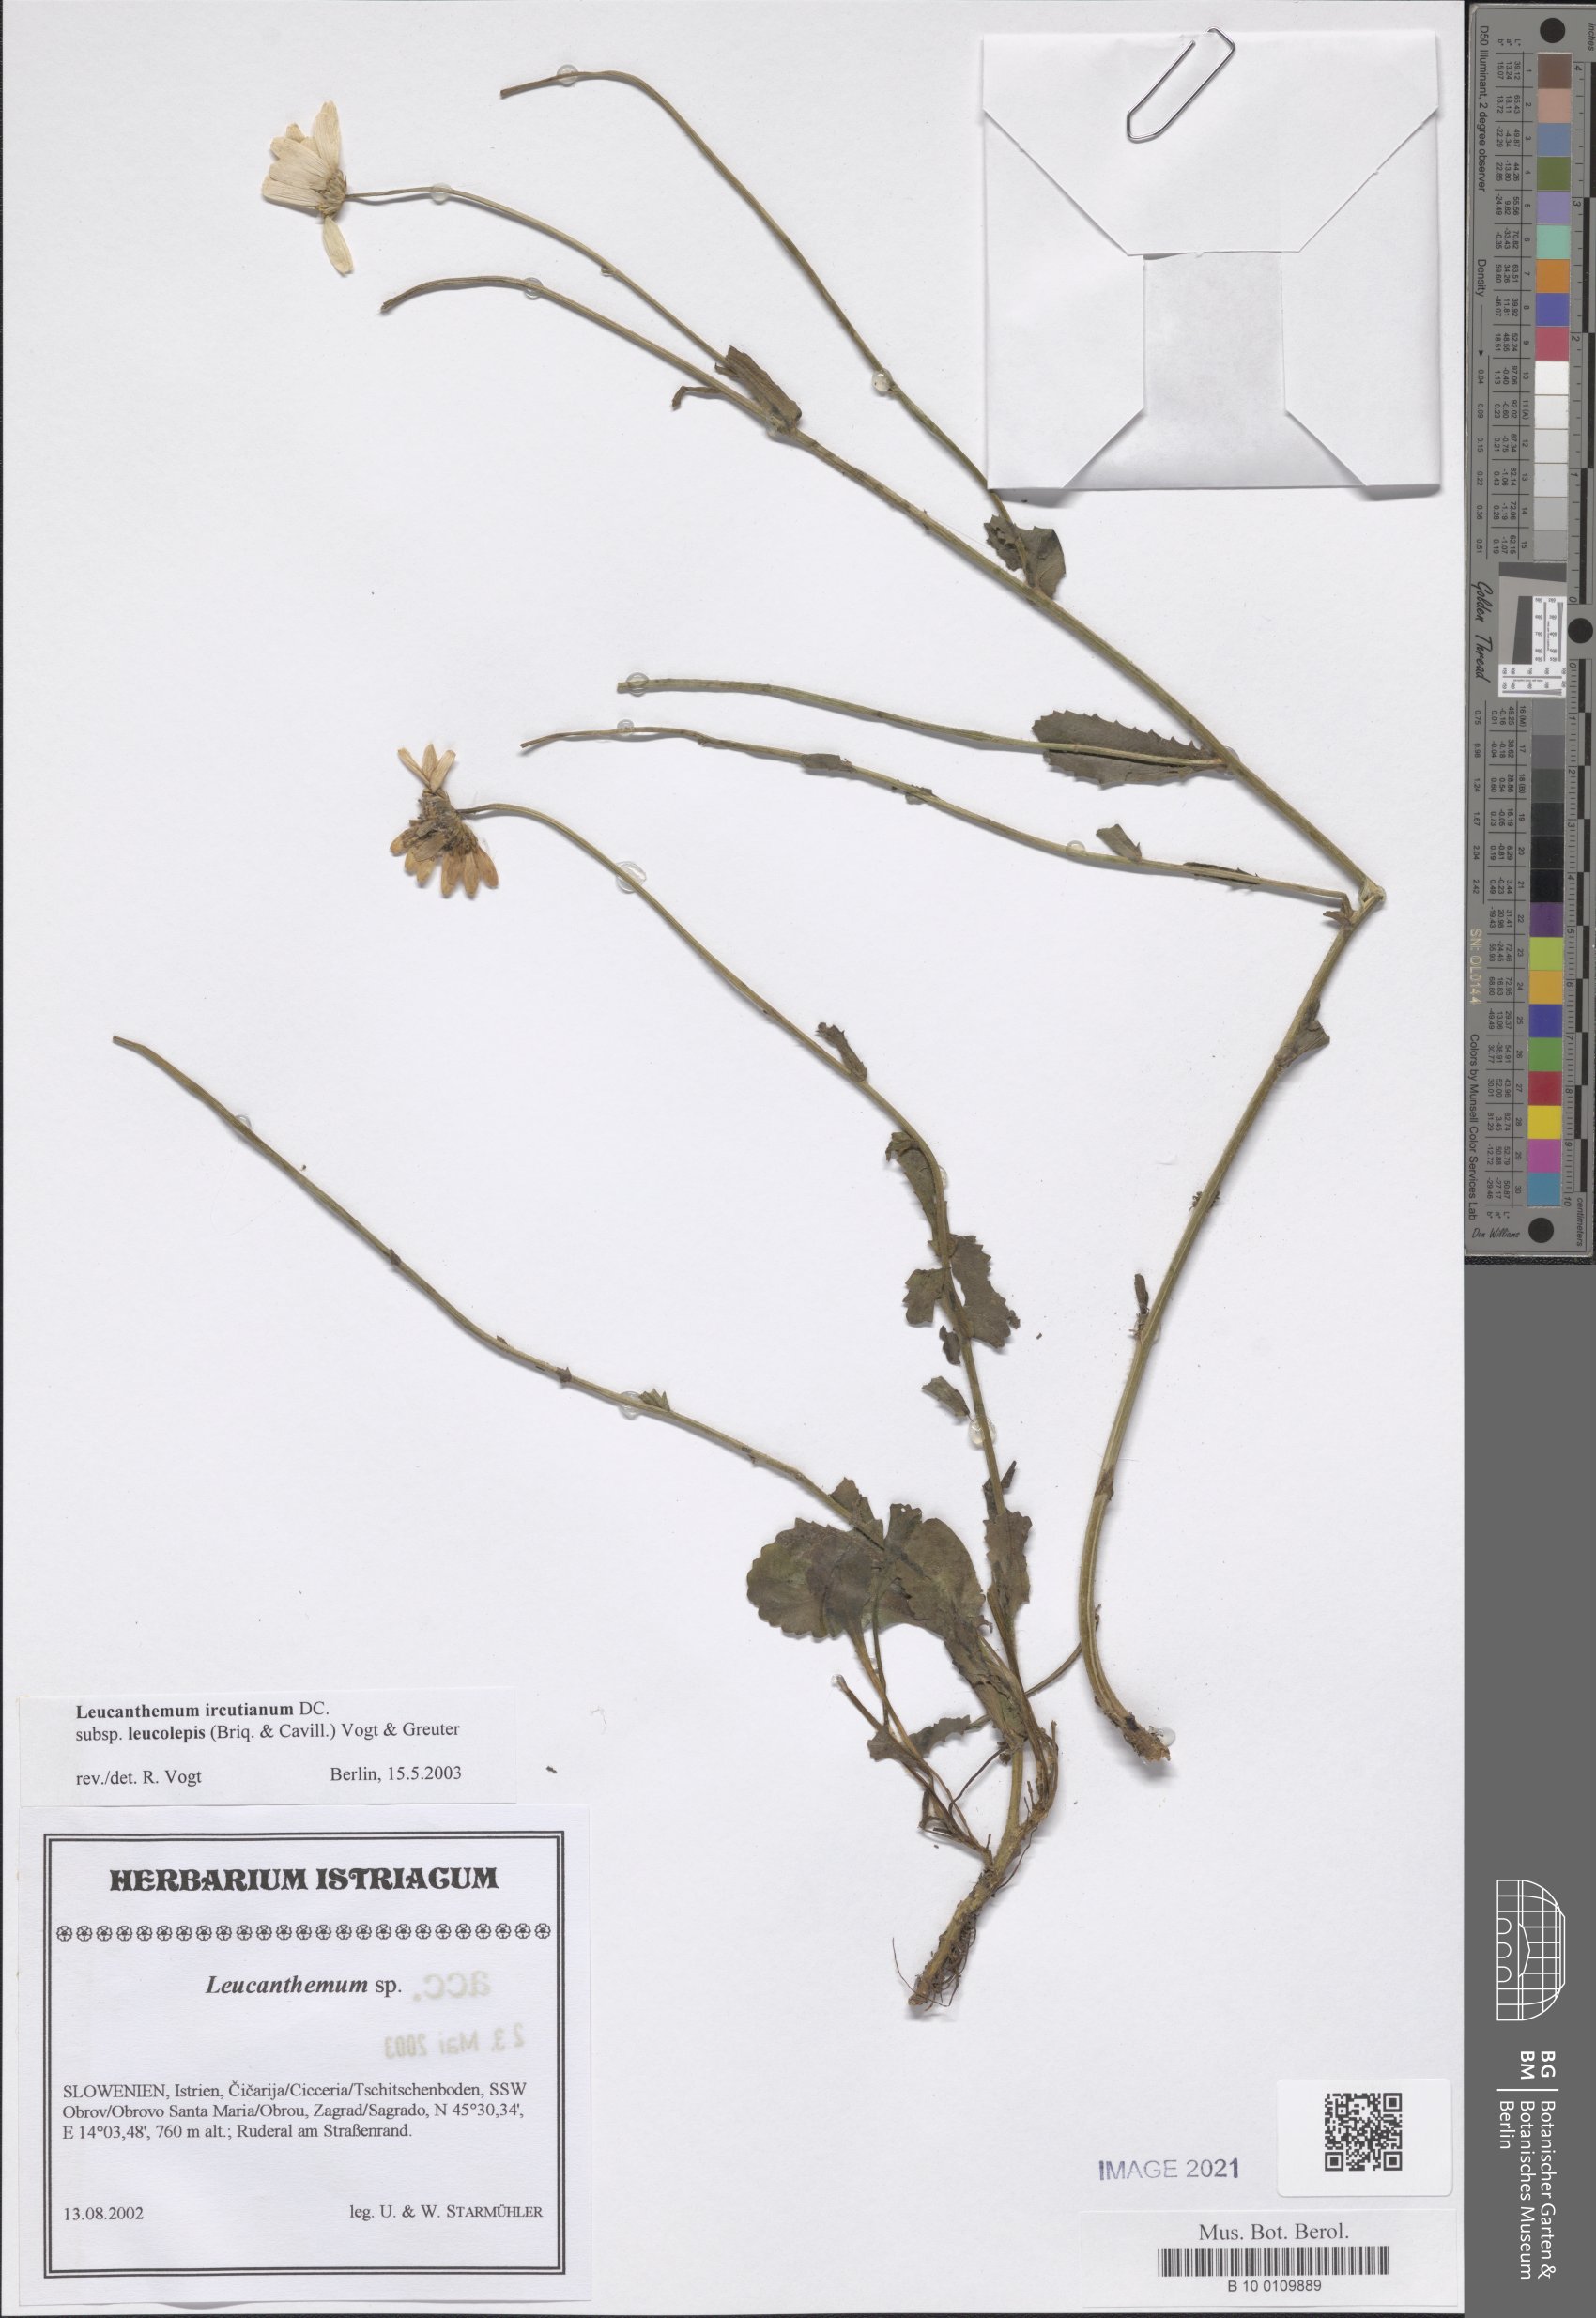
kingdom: Plantae
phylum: Tracheophyta
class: Magnoliopsida
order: Asterales
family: Asteraceae
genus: Leucanthemum
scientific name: Leucanthemum ircutianum
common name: Daisy
